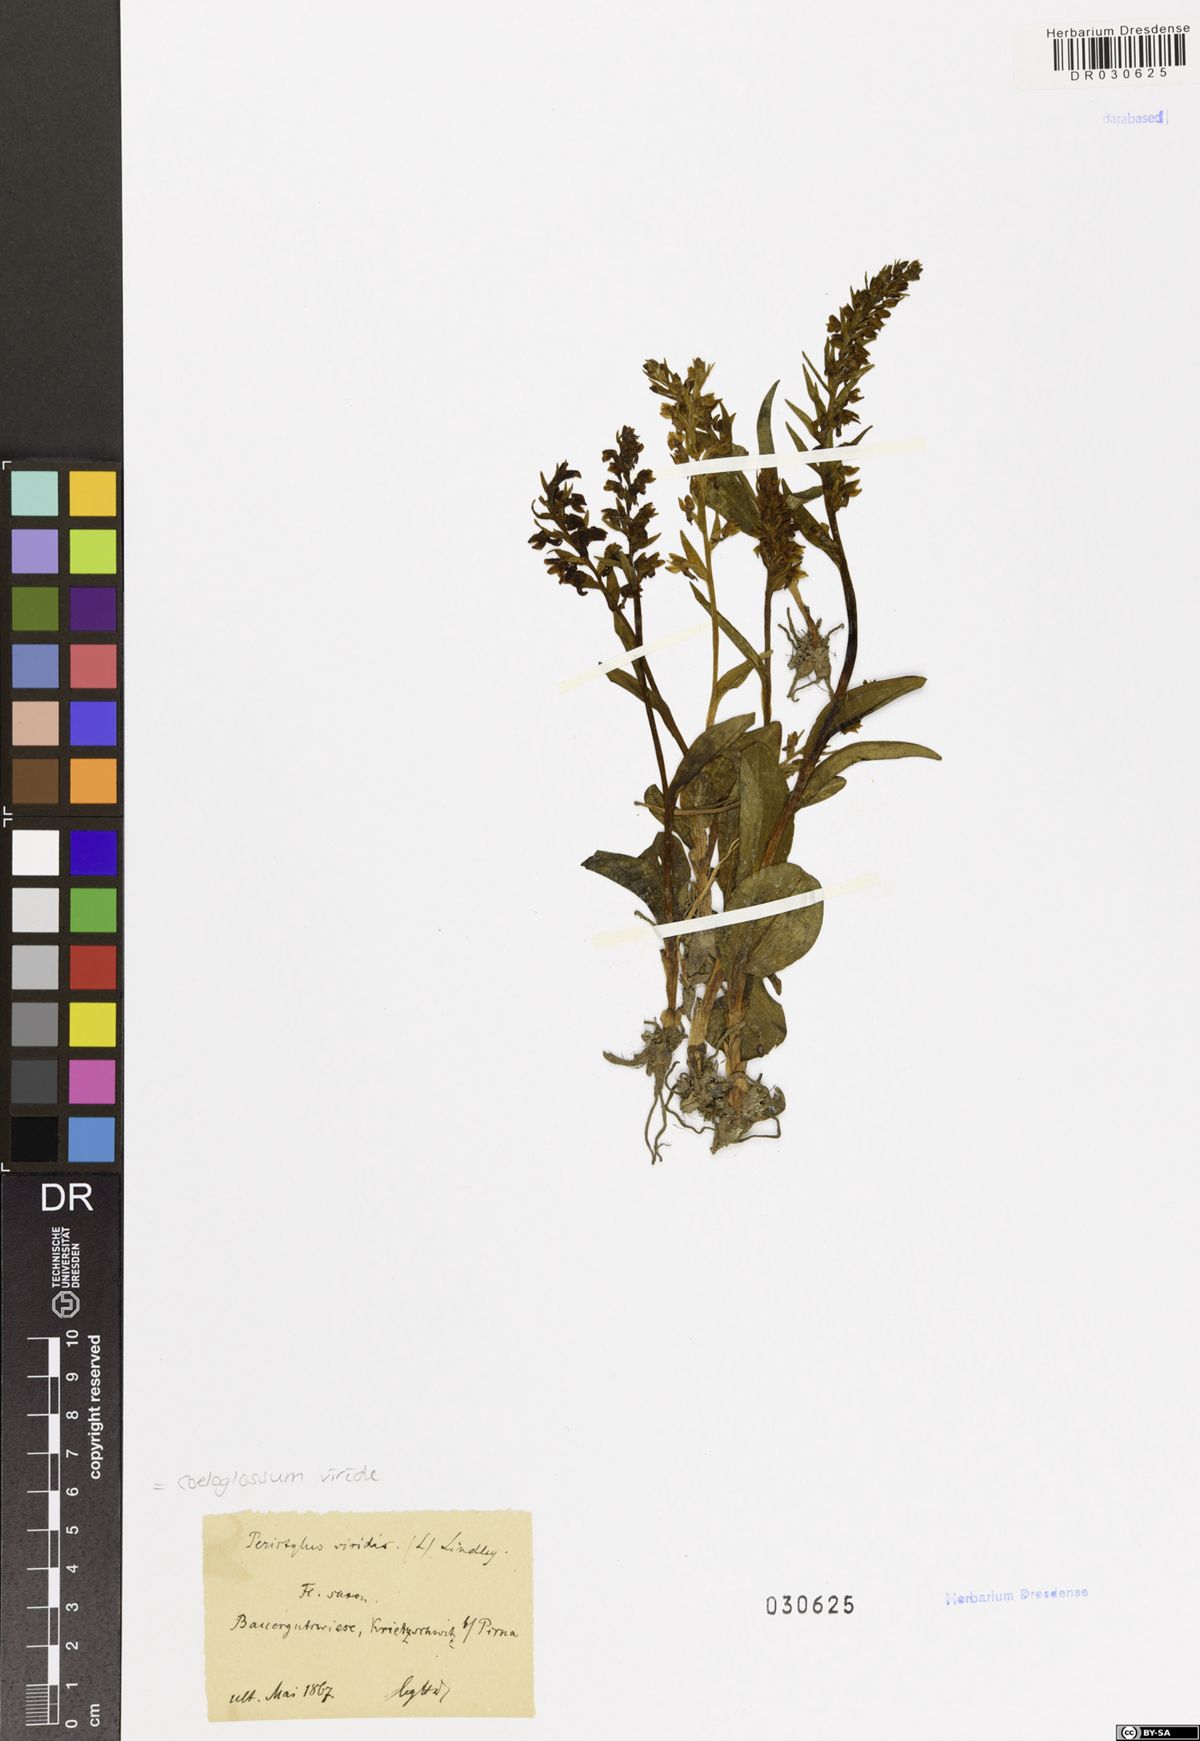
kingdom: Plantae
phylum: Tracheophyta
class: Liliopsida
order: Asparagales
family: Orchidaceae
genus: Dactylorhiza
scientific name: Dactylorhiza viridis
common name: Longbract frog orchid
